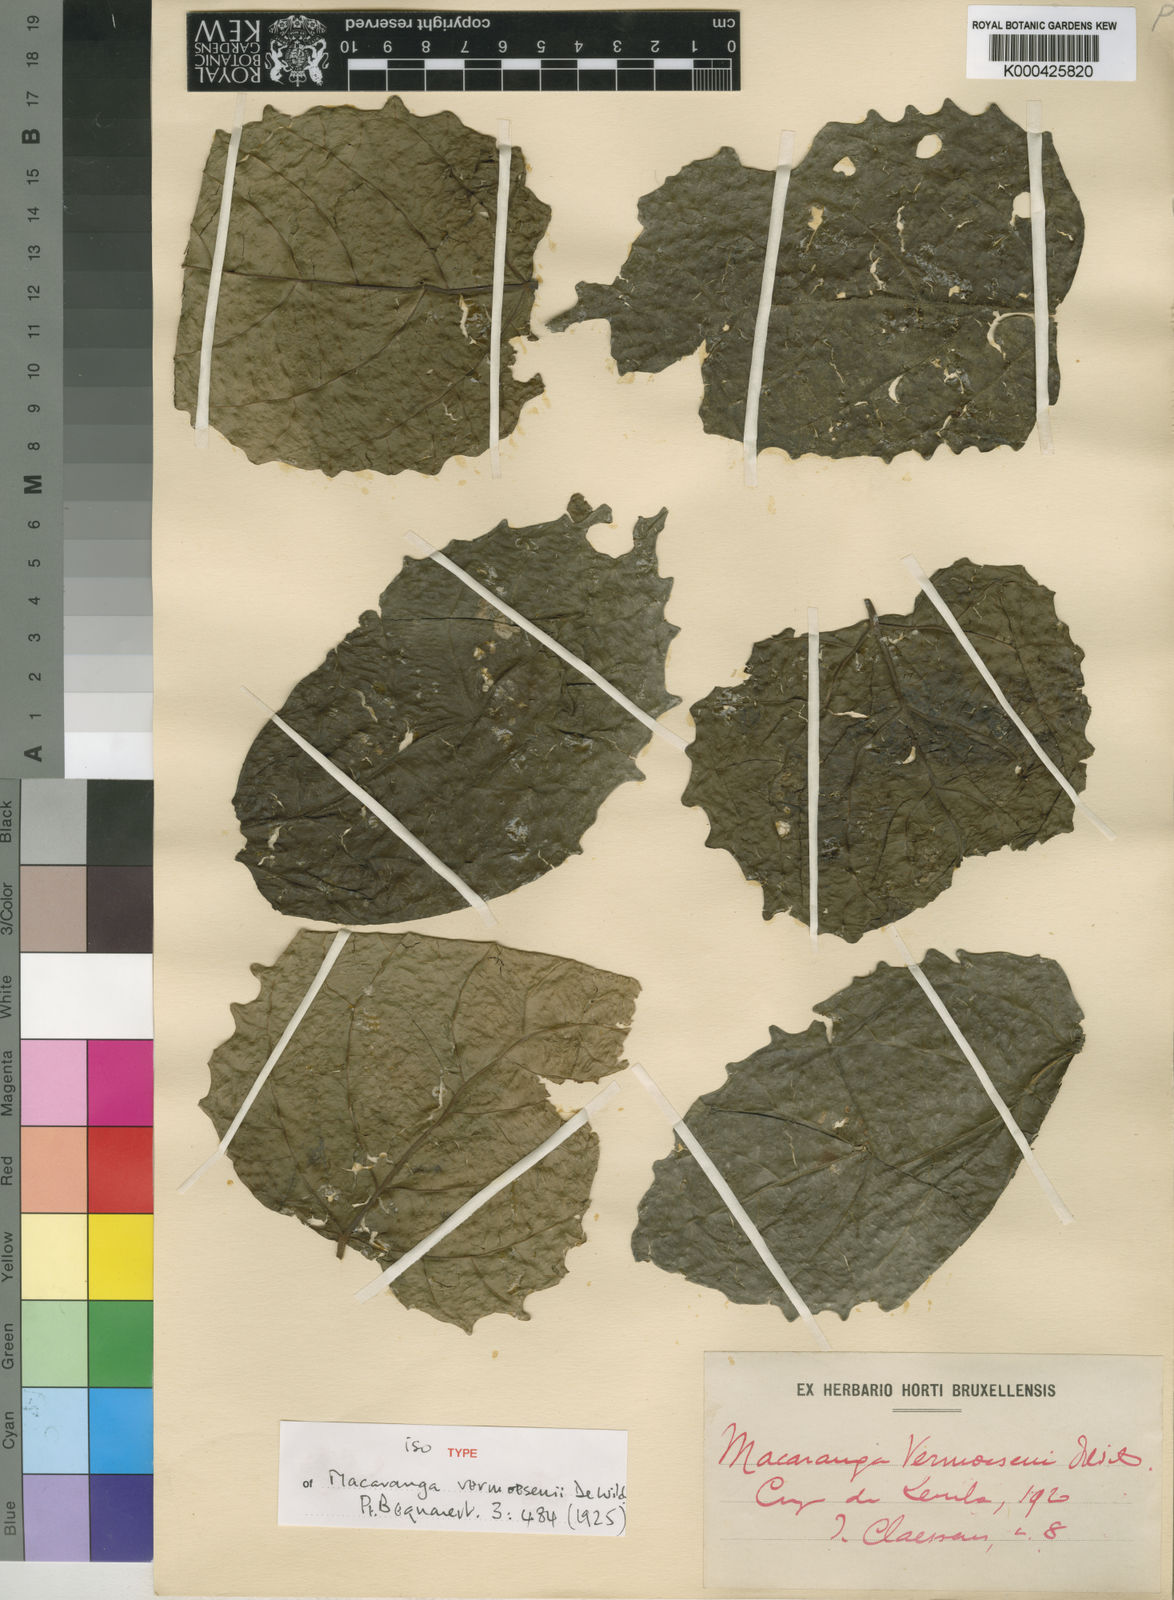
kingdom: Plantae
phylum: Tracheophyta
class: Magnoliopsida
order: Malpighiales
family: Euphorbiaceae
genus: Macaranga
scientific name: Macaranga vermoesenii
